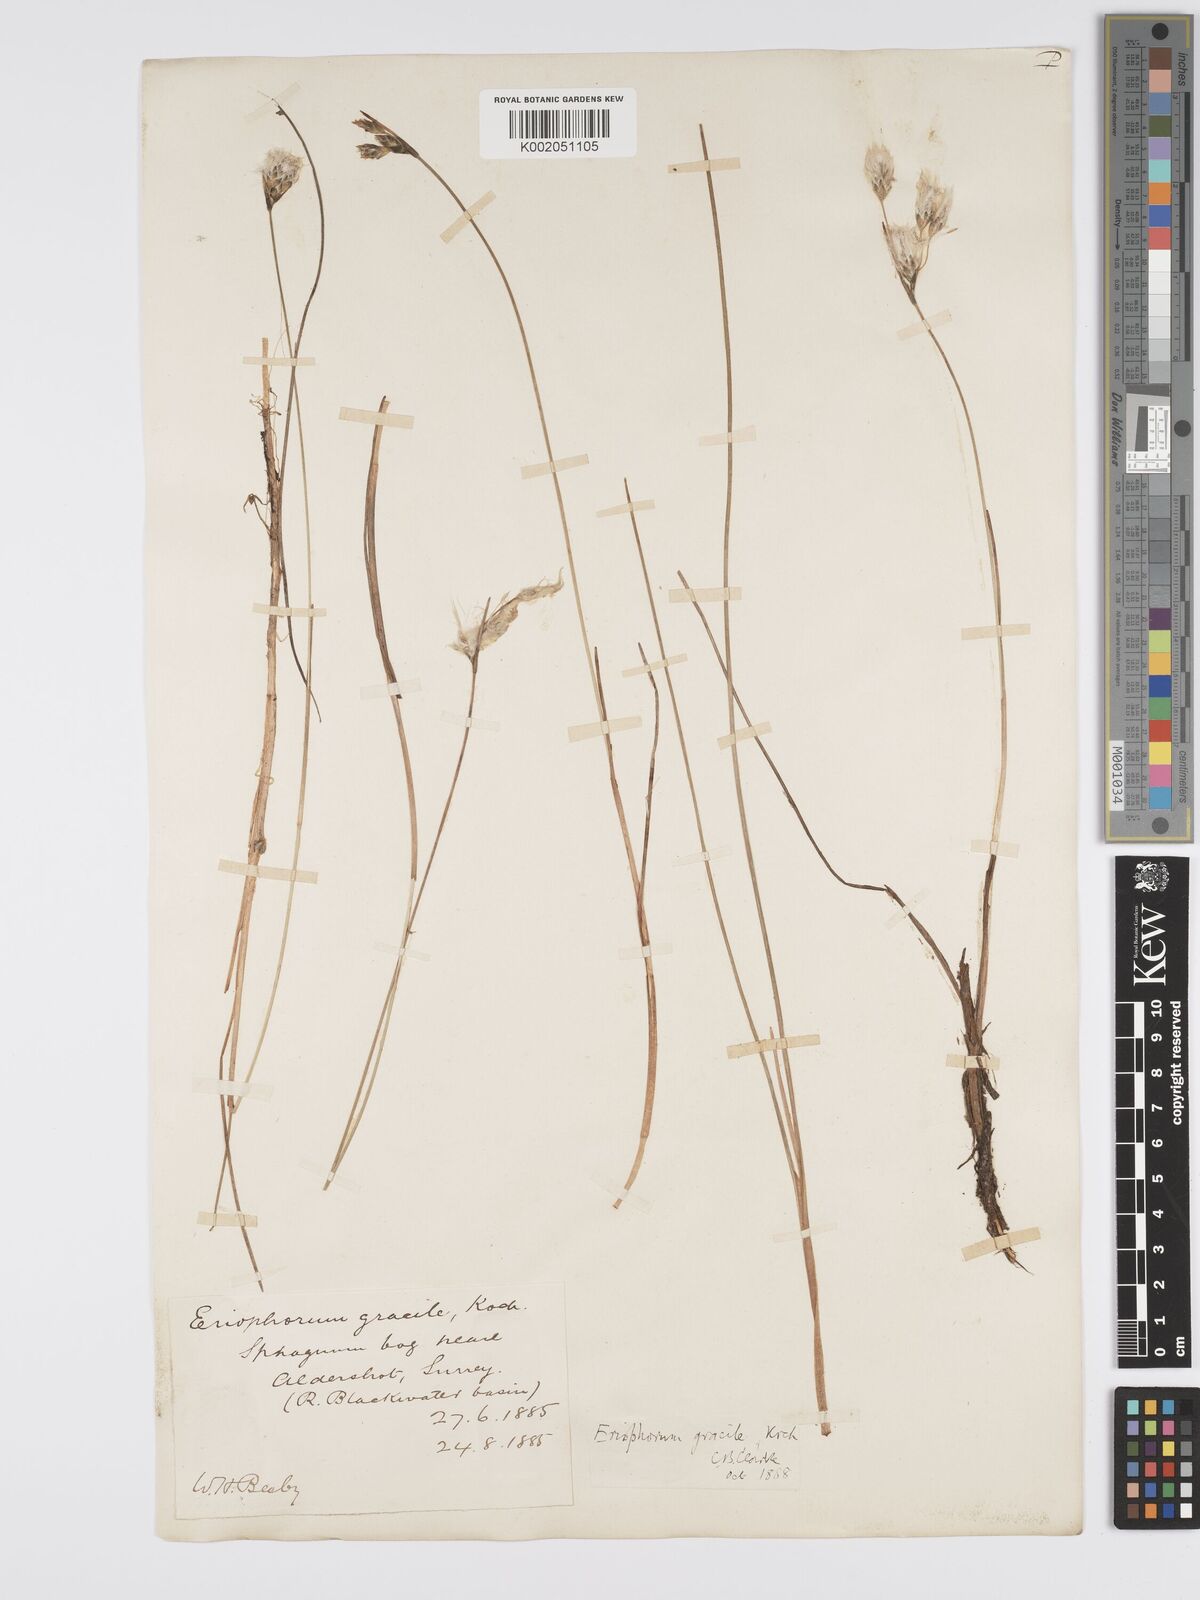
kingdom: Plantae
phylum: Tracheophyta
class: Liliopsida
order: Poales
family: Cyperaceae
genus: Eriophorum
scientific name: Eriophorum gracile
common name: Slender cottongrass
